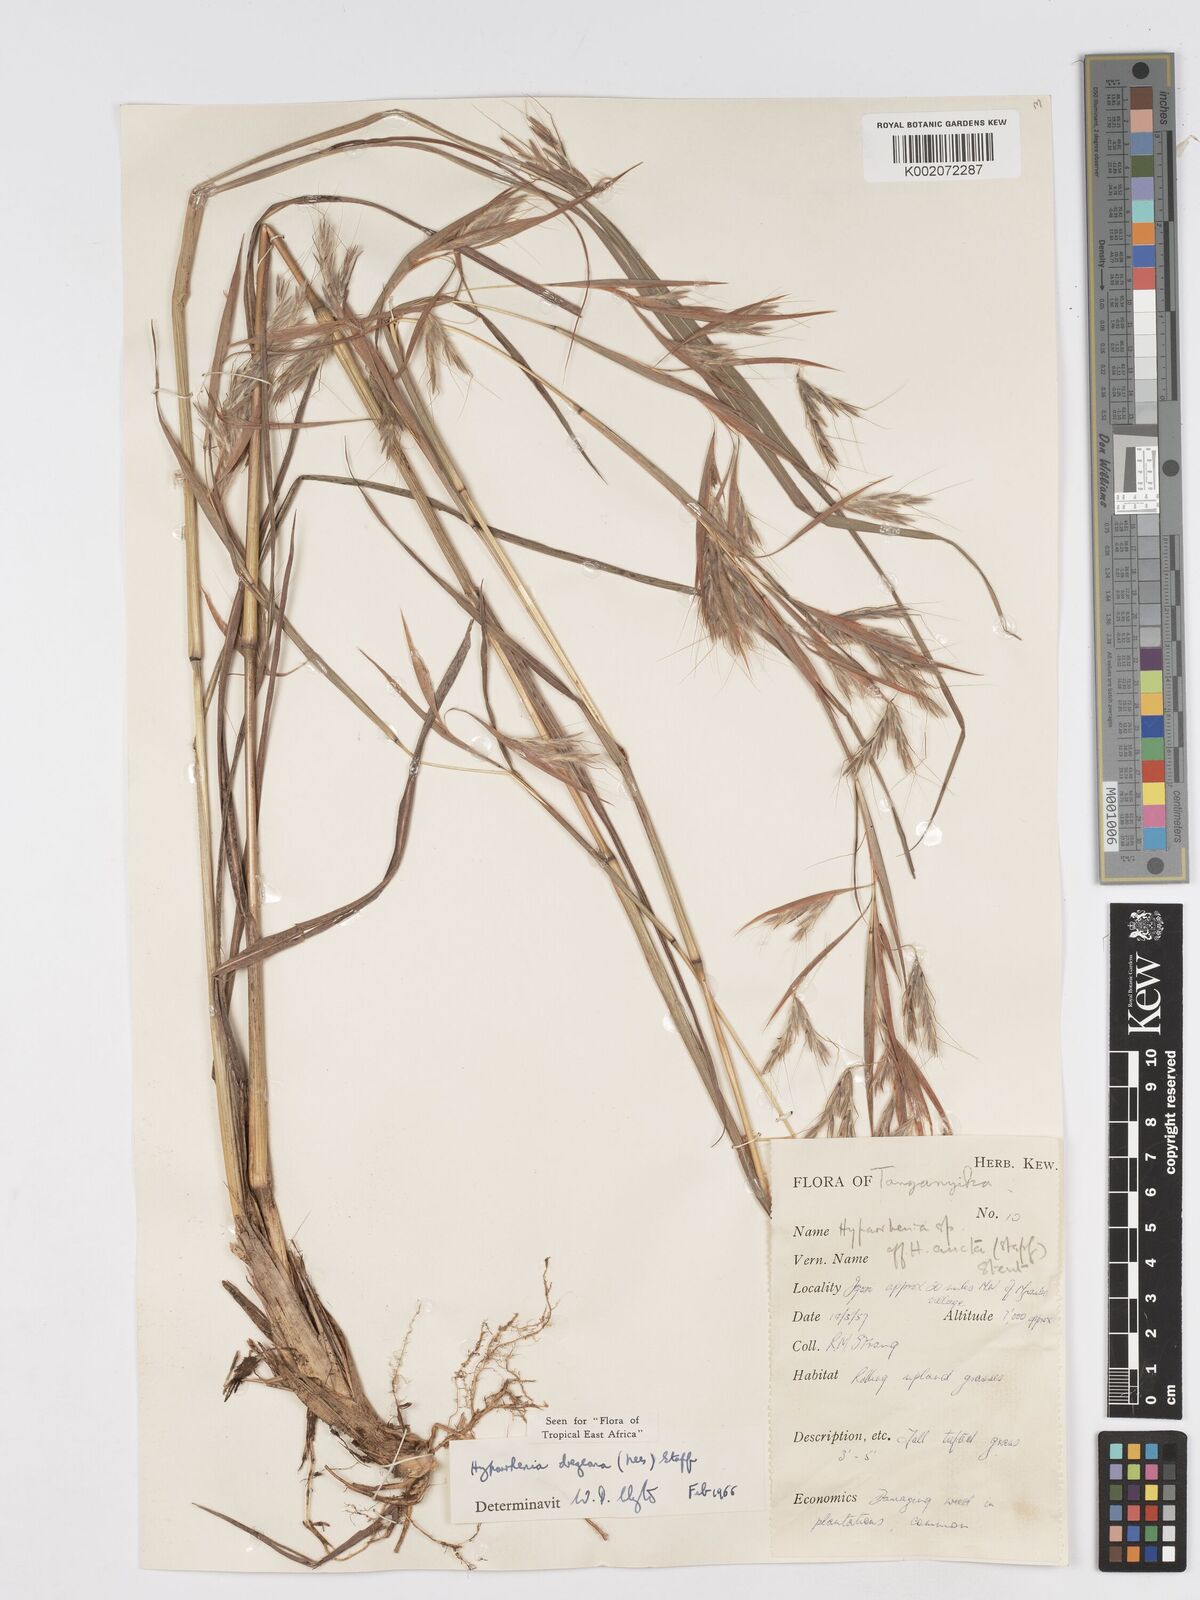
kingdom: Plantae
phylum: Tracheophyta
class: Liliopsida
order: Poales
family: Poaceae
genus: Hyparrhenia
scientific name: Hyparrhenia dregeana
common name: Silky thatching grass
